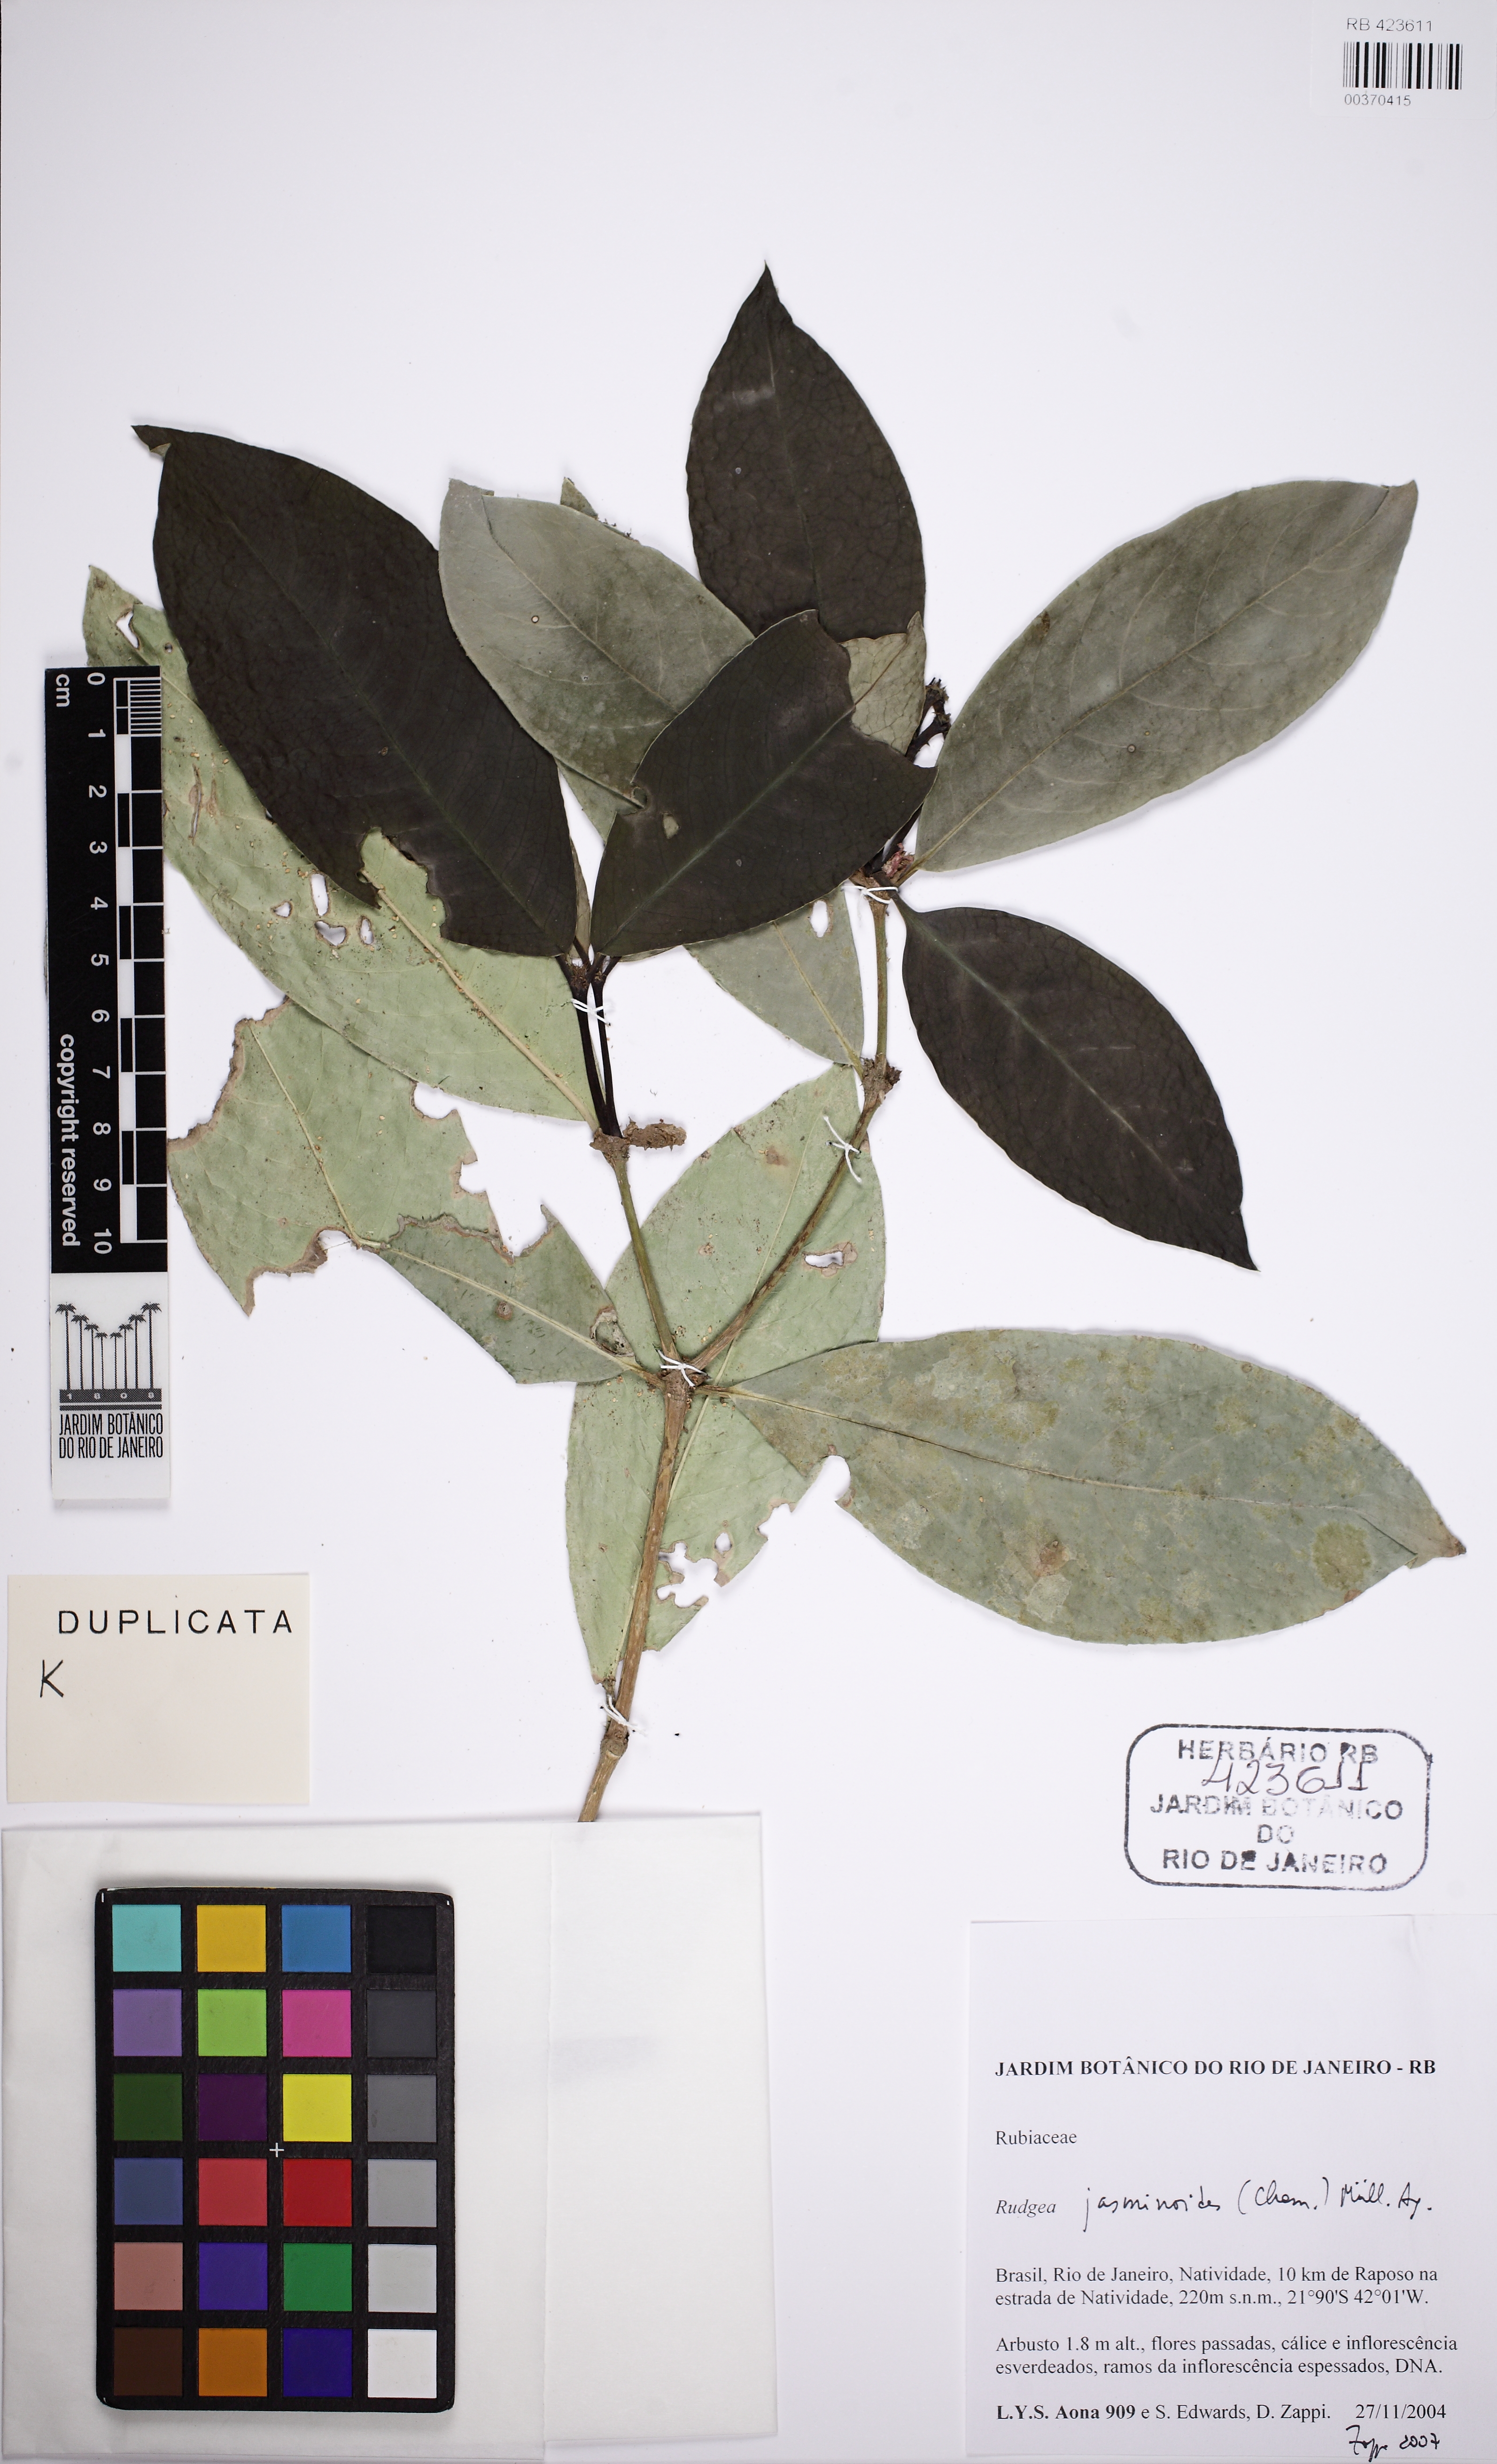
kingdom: Plantae
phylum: Tracheophyta
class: Magnoliopsida
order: Gentianales
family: Rubiaceae
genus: Rudgea
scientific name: Rudgea jasminoides
